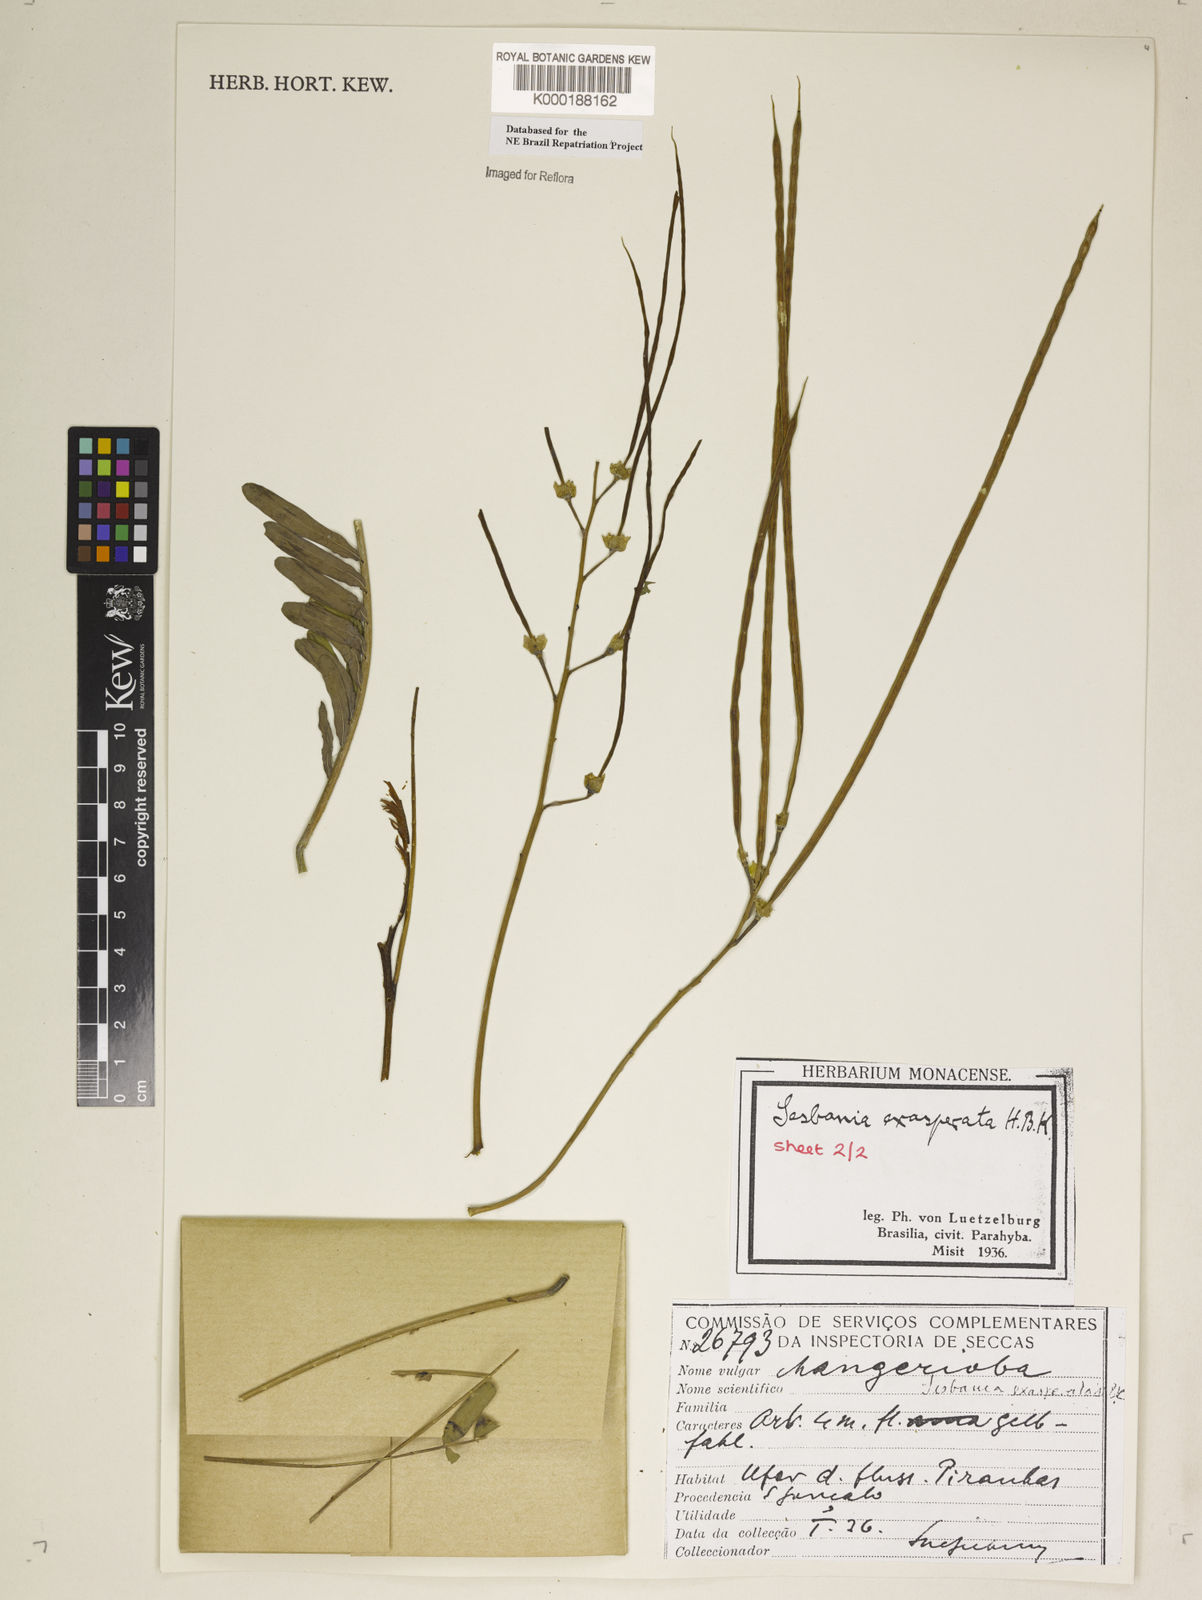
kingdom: Plantae
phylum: Tracheophyta
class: Magnoliopsida
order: Fabales
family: Fabaceae
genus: Sesbania
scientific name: Sesbania exasperata
